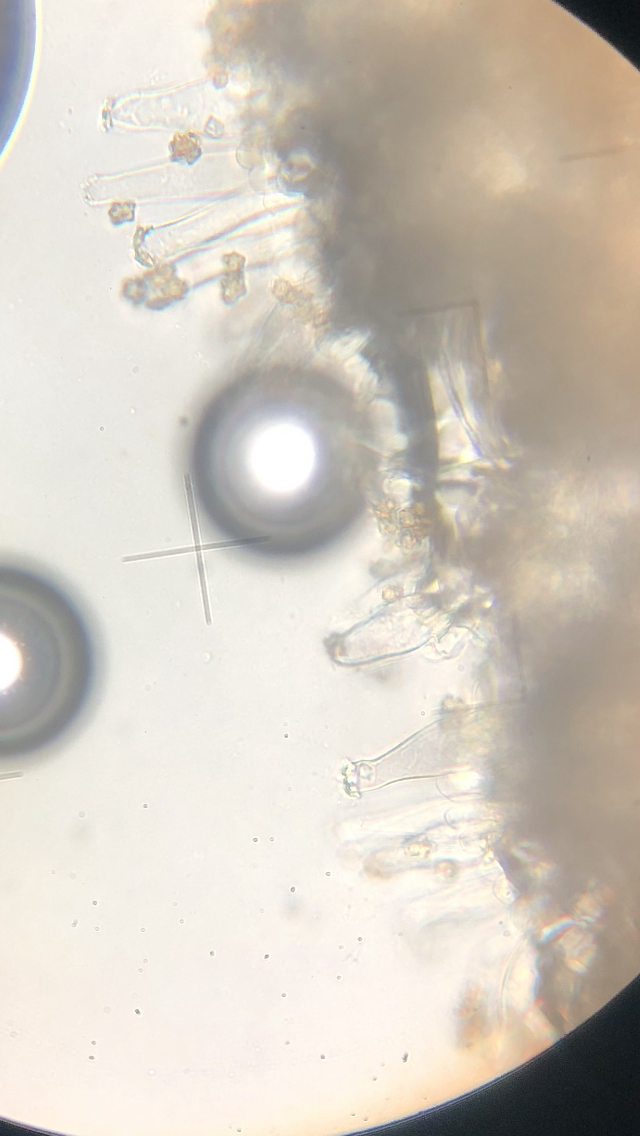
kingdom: Fungi
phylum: Basidiomycota
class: Agaricomycetes
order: Agaricales
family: Inocybaceae
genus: Inocybe
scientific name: Inocybe napipes
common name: roeknoldet trævlhat
